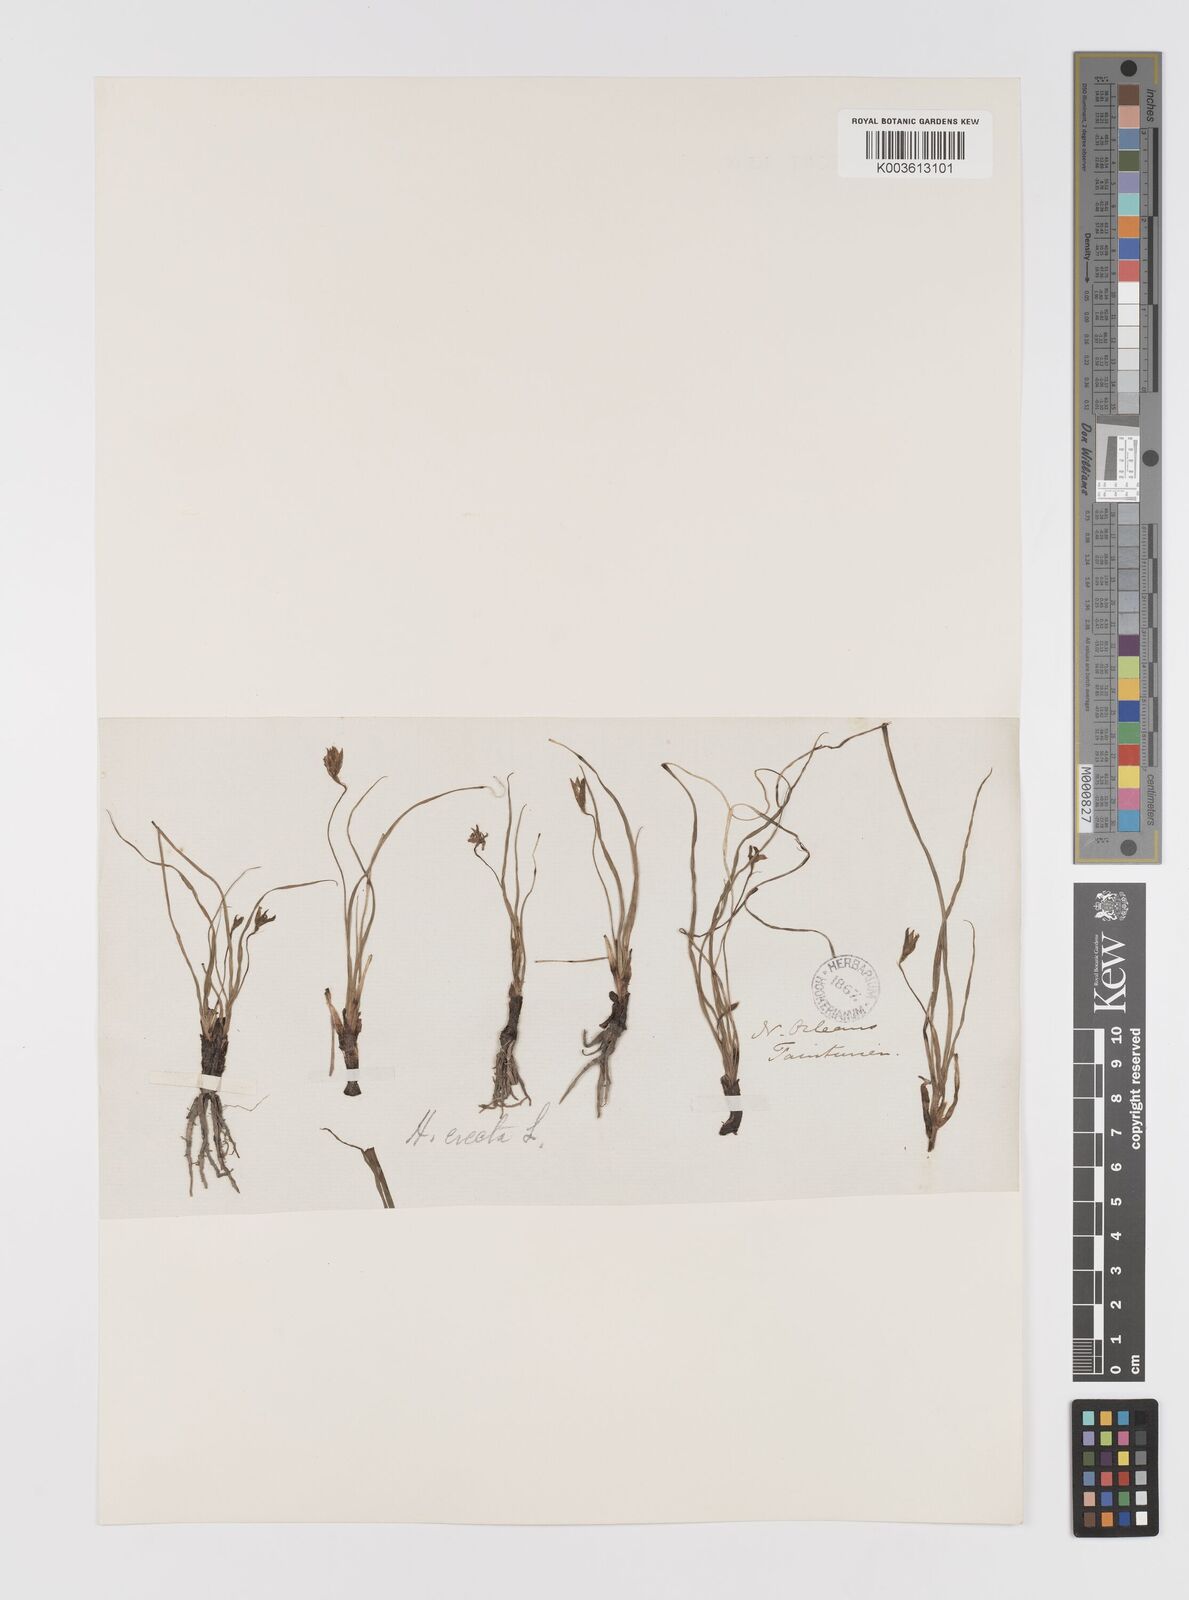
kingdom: Plantae
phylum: Tracheophyta
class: Liliopsida
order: Asparagales
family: Hypoxidaceae
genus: Hypoxis
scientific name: Hypoxis hirsuta
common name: Common goldstar
